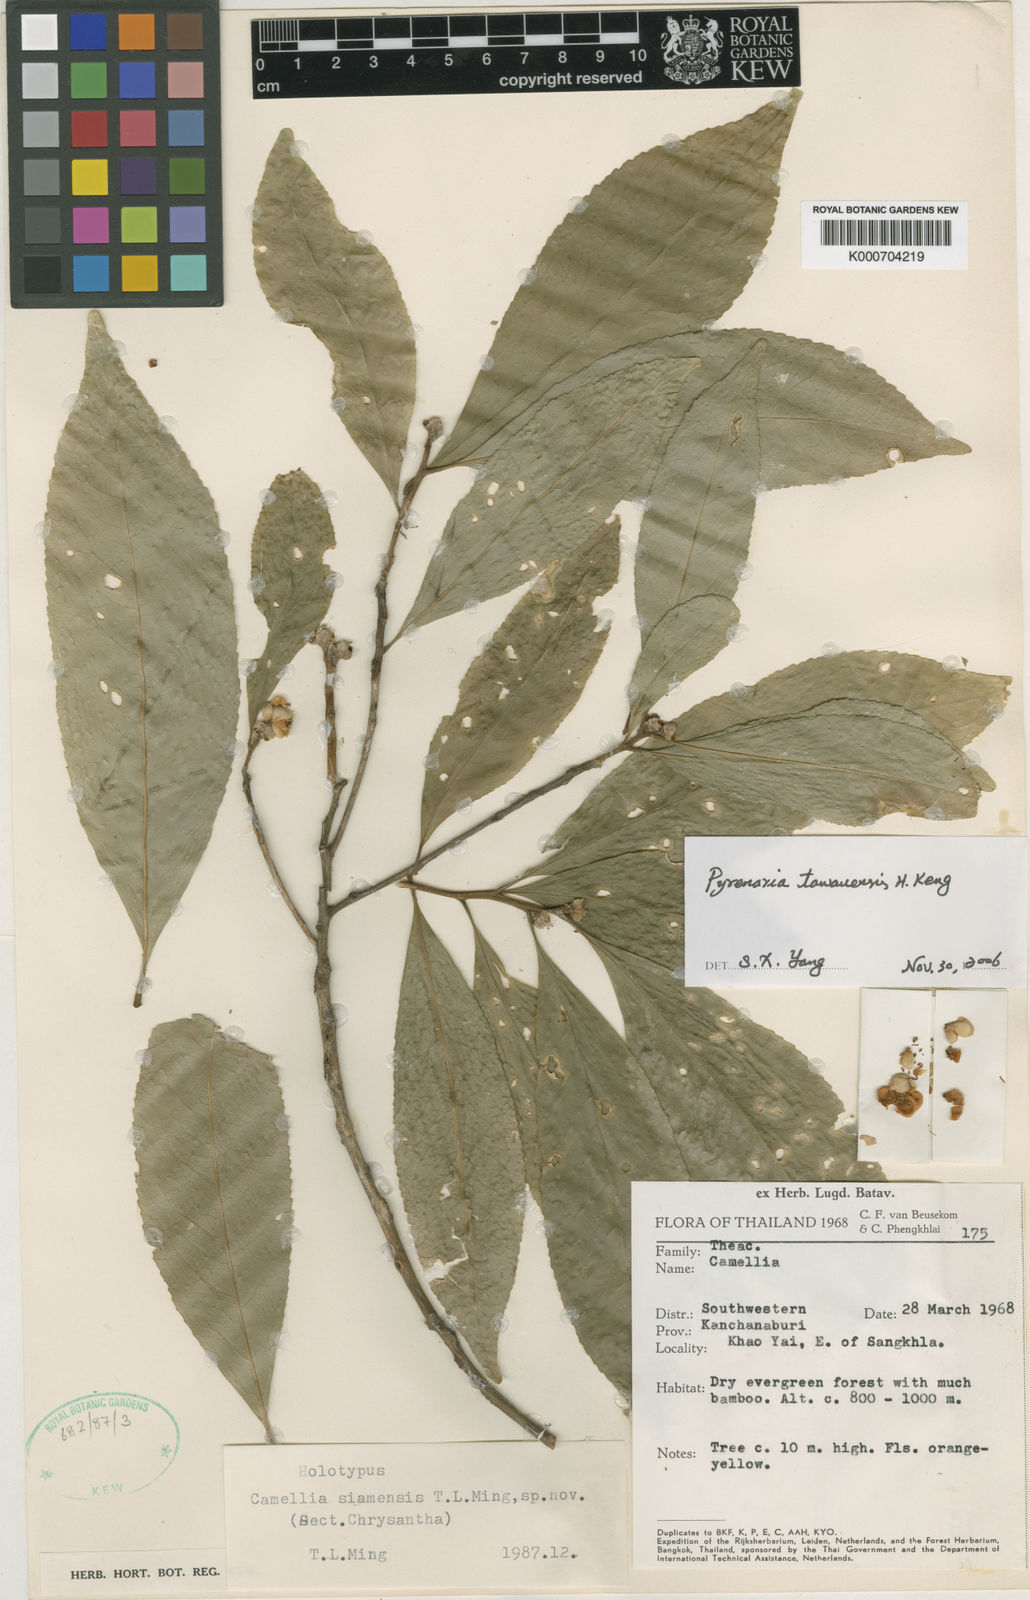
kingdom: Plantae
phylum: Tracheophyta
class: Magnoliopsida
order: Ericales
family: Theaceae
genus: Camellia
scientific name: Camellia
